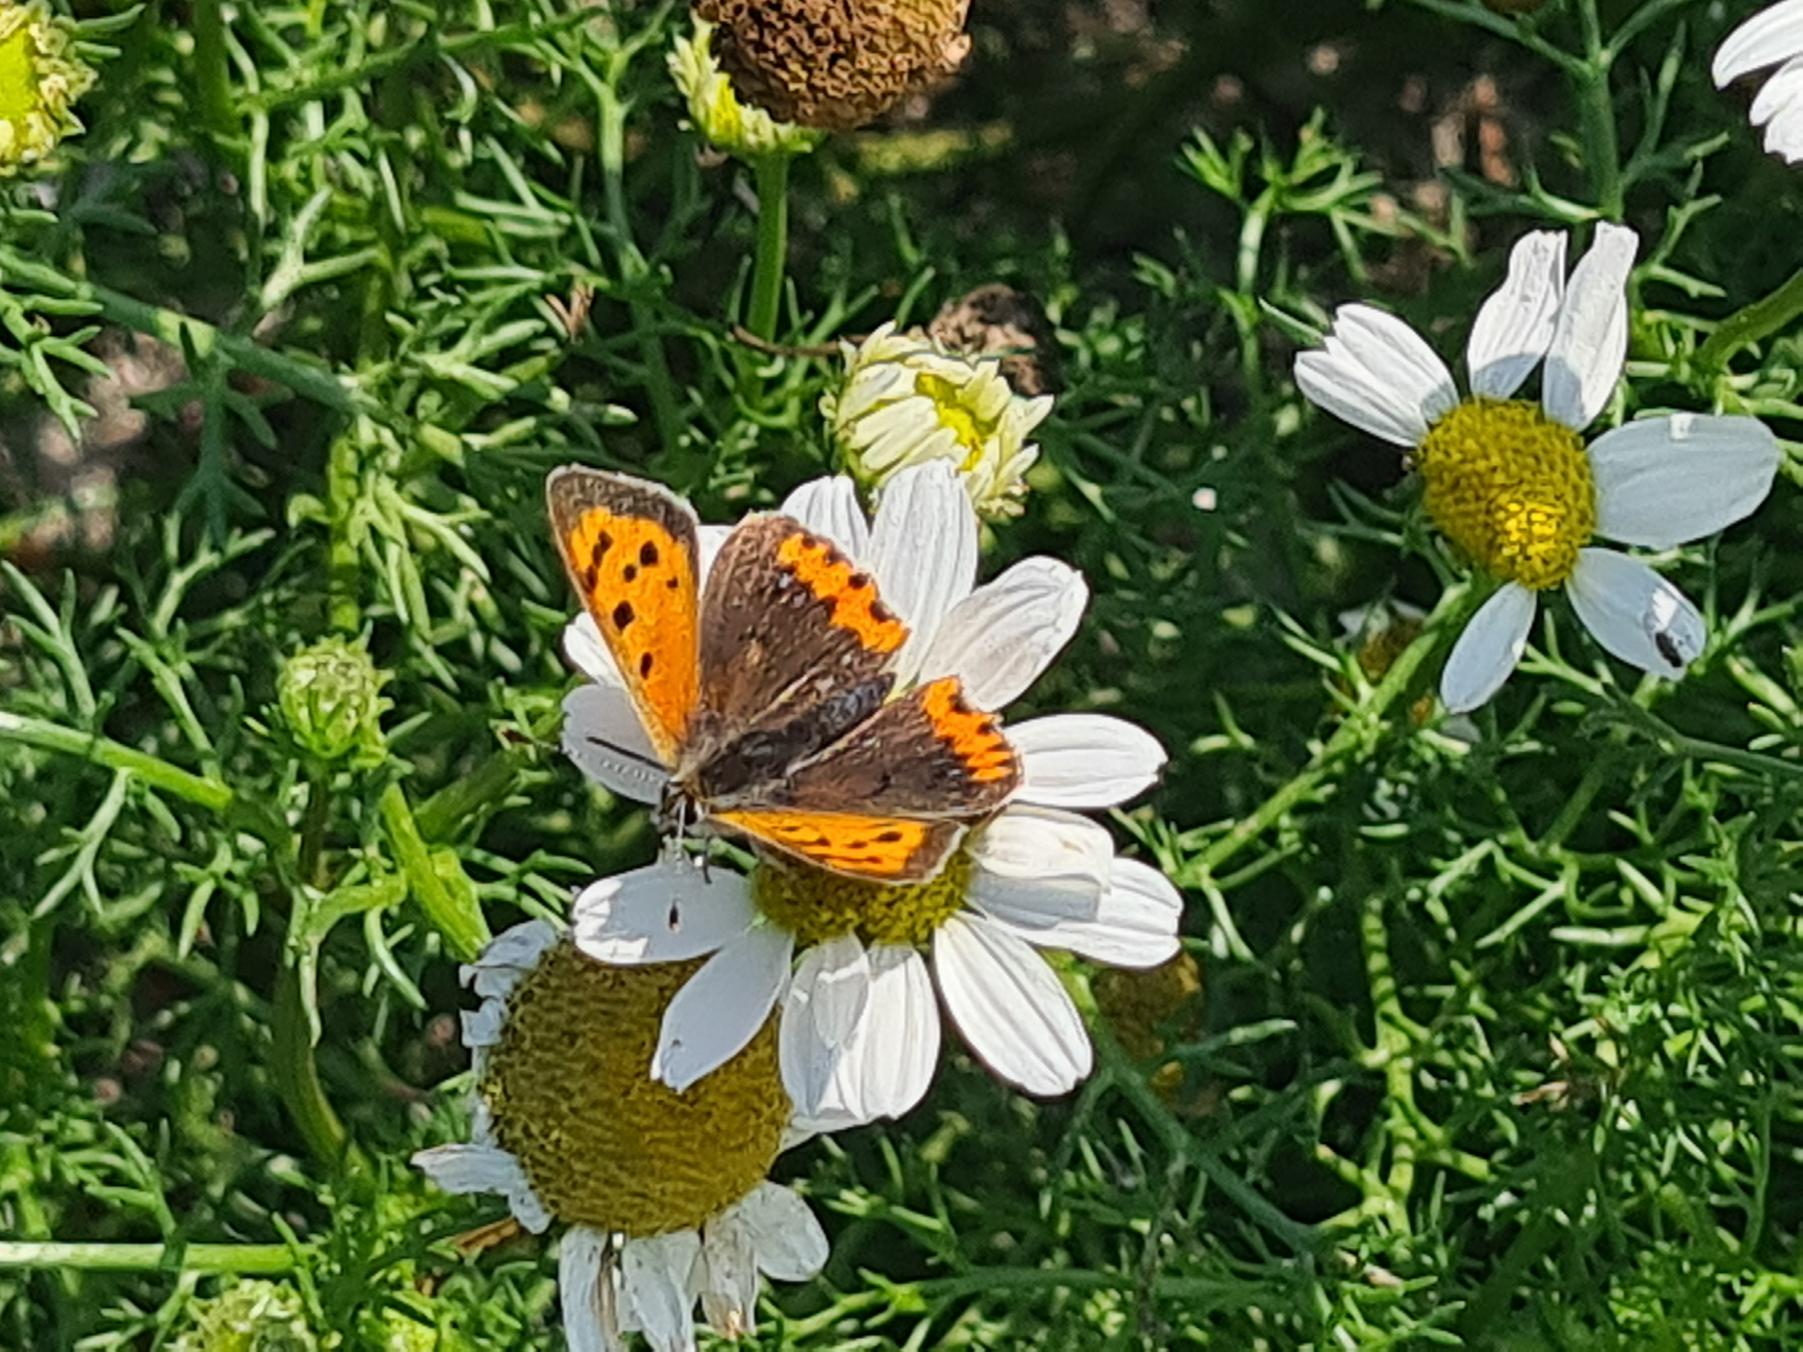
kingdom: Animalia
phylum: Arthropoda
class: Insecta
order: Lepidoptera
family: Lycaenidae
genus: Lycaena
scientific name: Lycaena phlaeas
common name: Lille ildfugl
